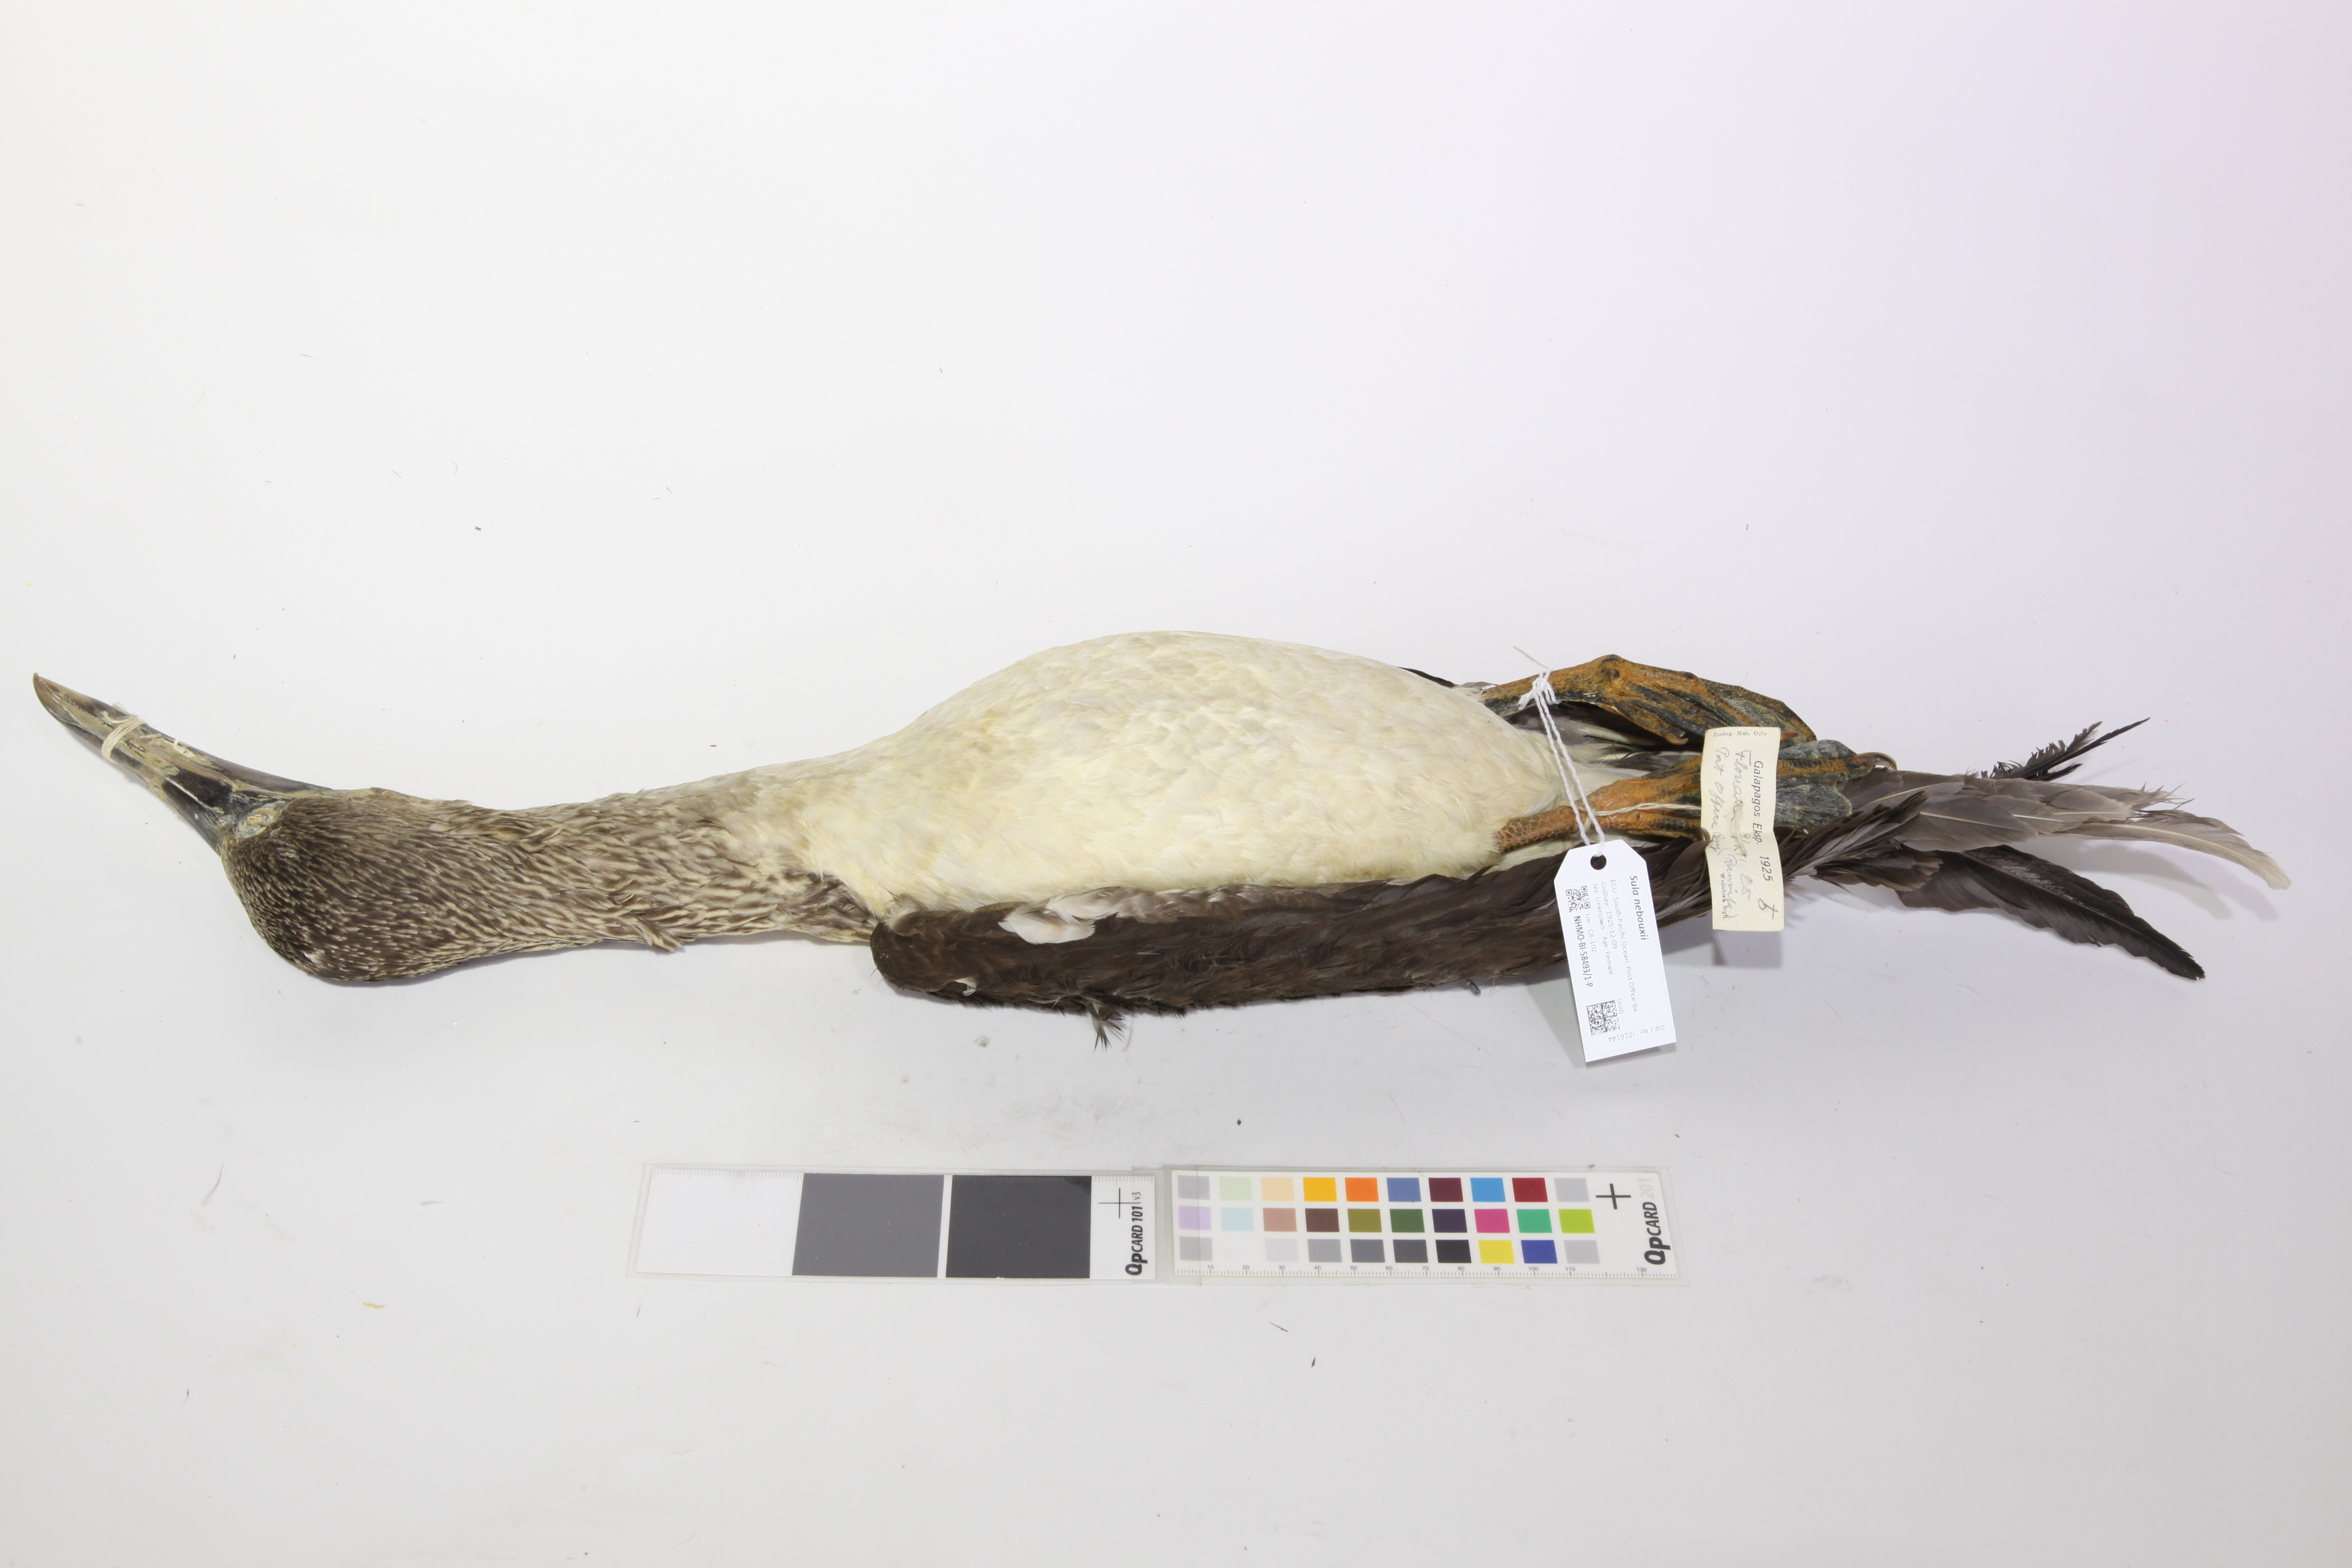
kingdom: Animalia
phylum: Chordata
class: Aves
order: Suliformes
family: Sulidae
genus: Sula
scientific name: Sula nebouxii
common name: Blue-footed booby
